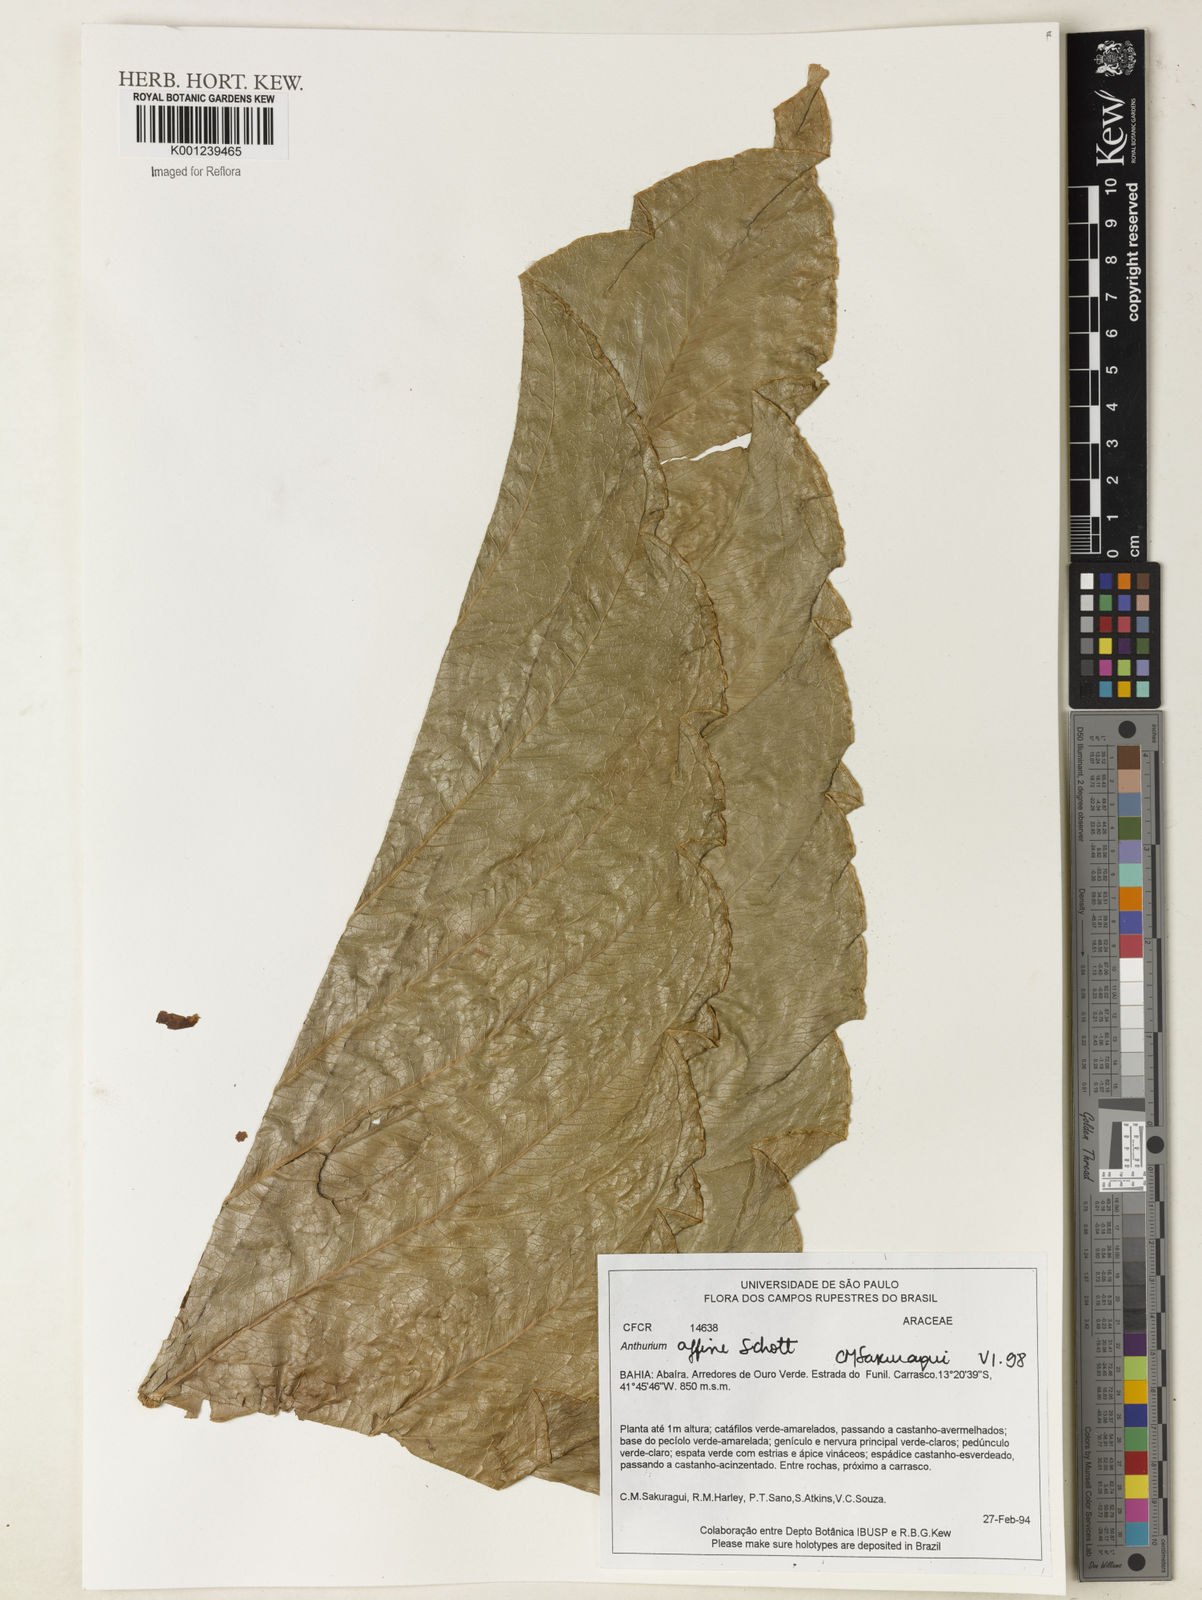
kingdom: Plantae
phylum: Tracheophyta
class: Liliopsida
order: Alismatales
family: Araceae
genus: Anthurium
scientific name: Anthurium affine
